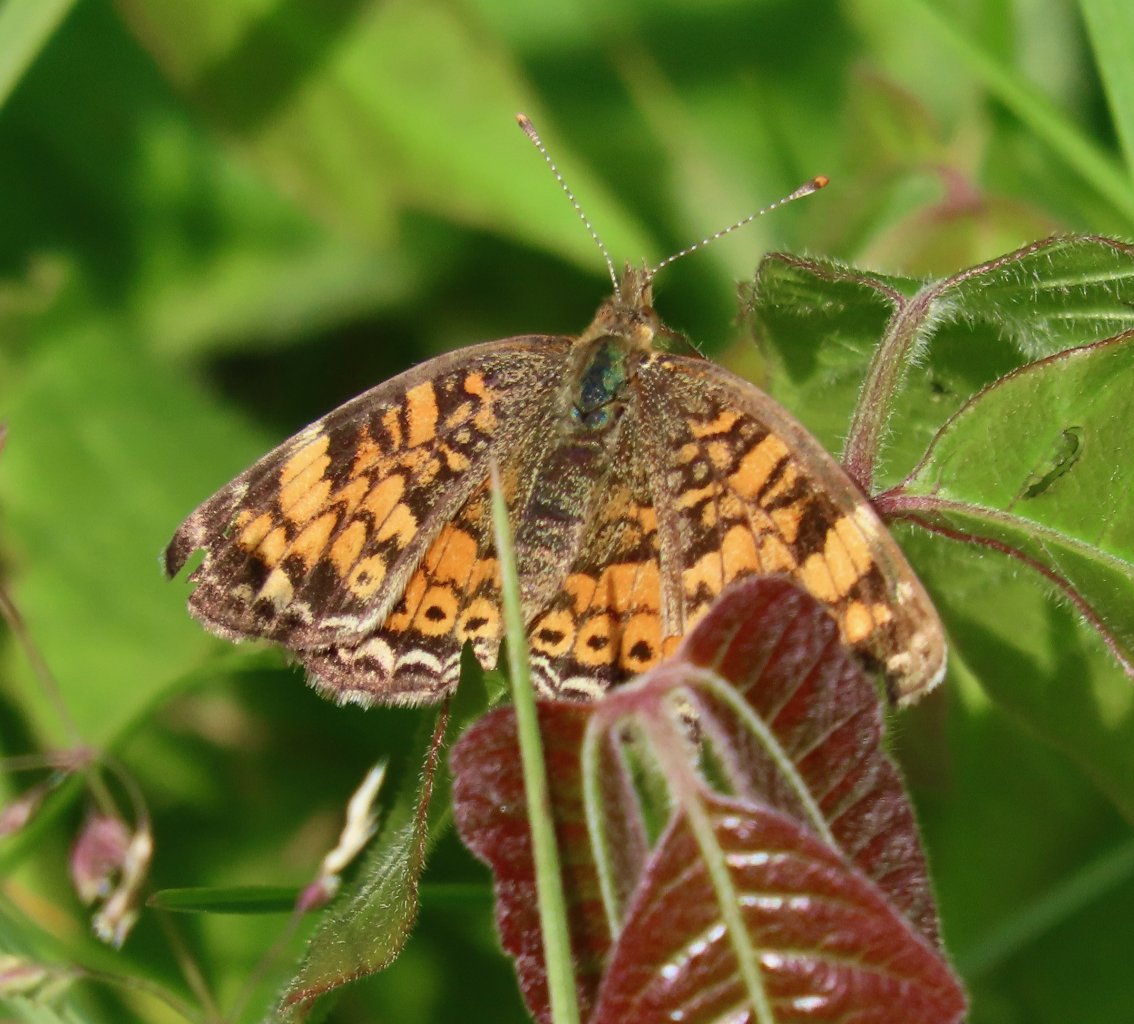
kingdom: Animalia
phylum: Arthropoda
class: Insecta
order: Lepidoptera
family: Nymphalidae
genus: Phyciodes
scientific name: Phyciodes tharos
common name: Pearl Crescent
